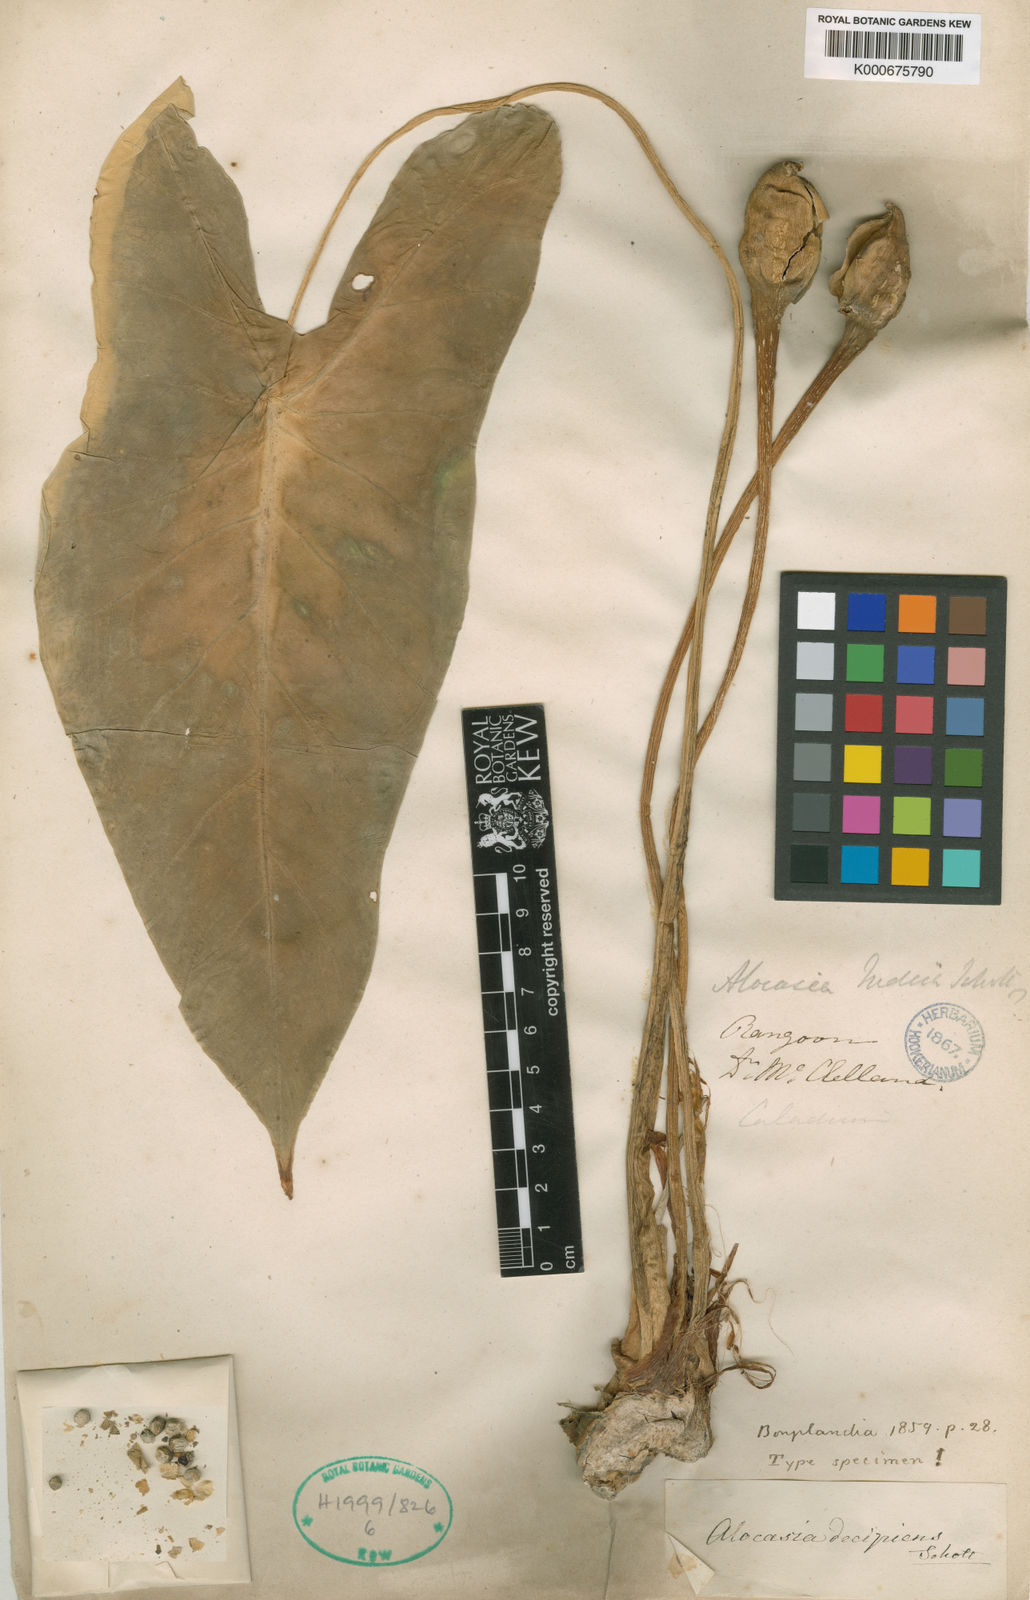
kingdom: Plantae
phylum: Tracheophyta
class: Liliopsida
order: Alismatales
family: Araceae
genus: Alocasia
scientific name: Alocasia decipiens
